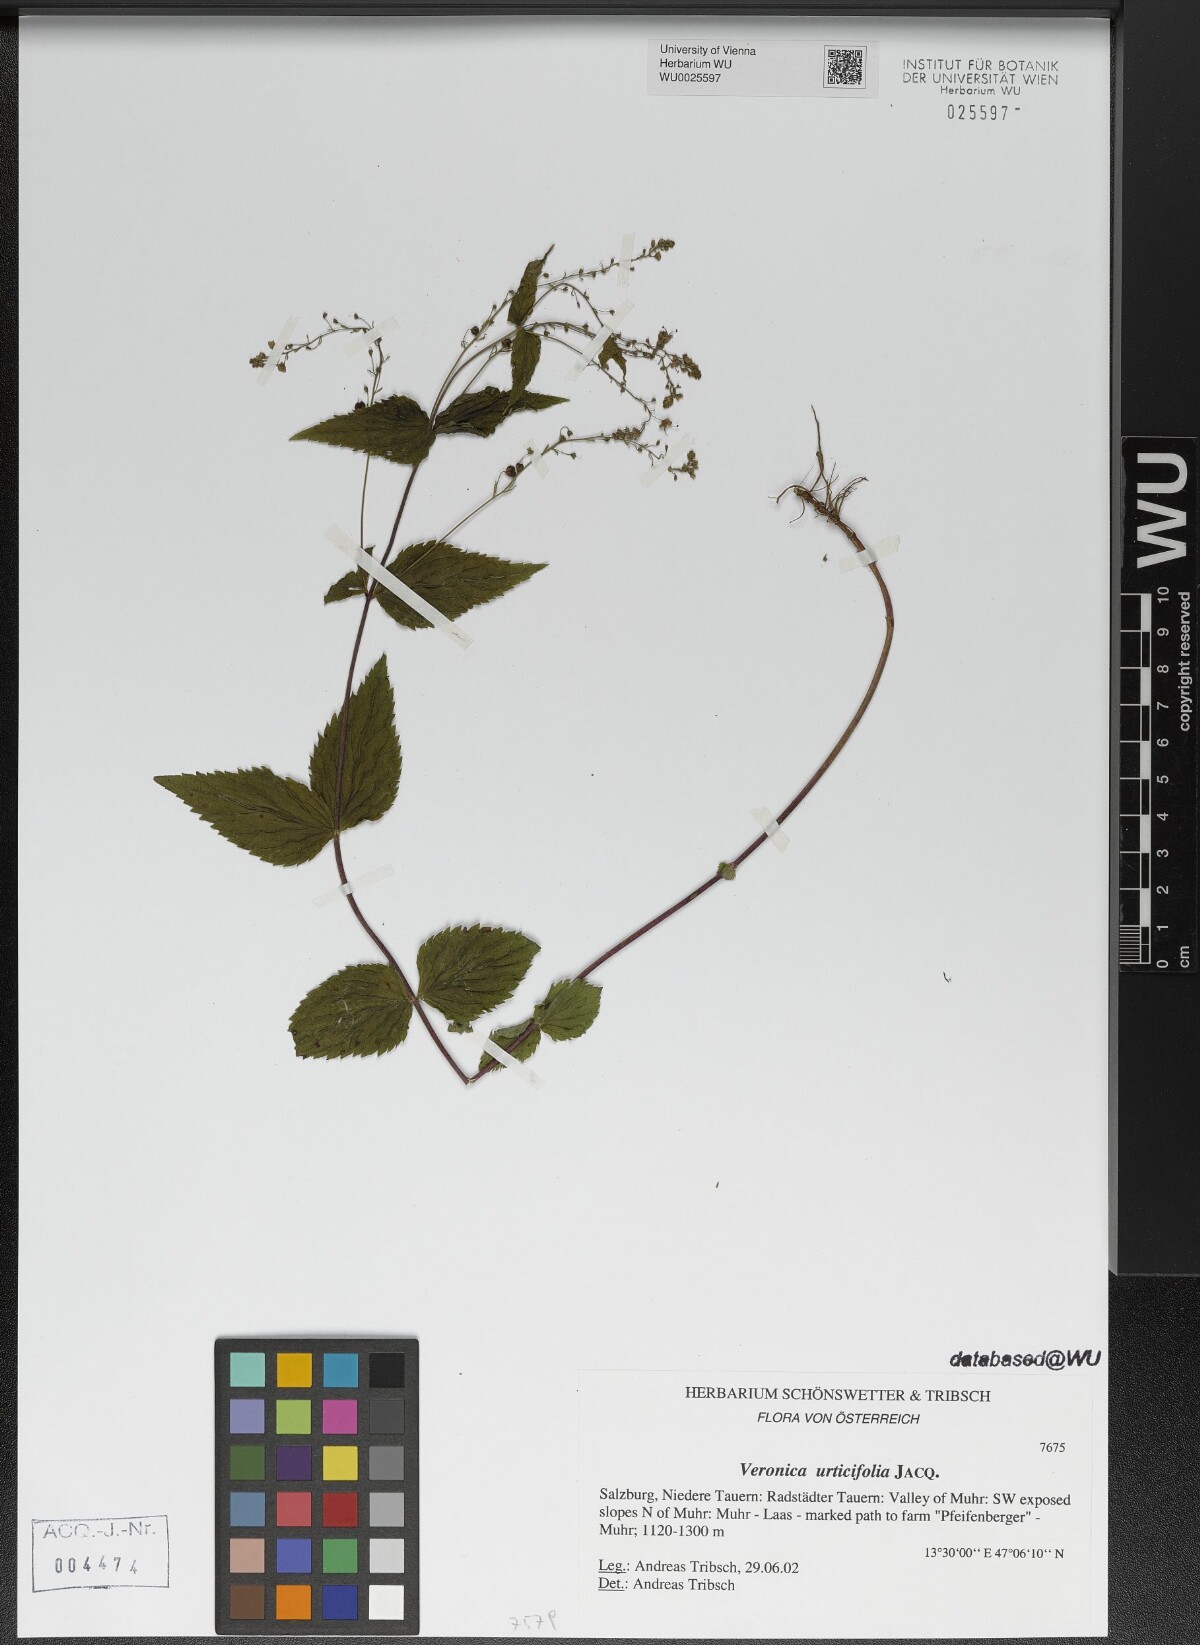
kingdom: Plantae
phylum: Tracheophyta
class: Magnoliopsida
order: Lamiales
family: Plantaginaceae
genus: Veronica
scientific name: Veronica urticifolia
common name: Nettle-leaf speedwell
